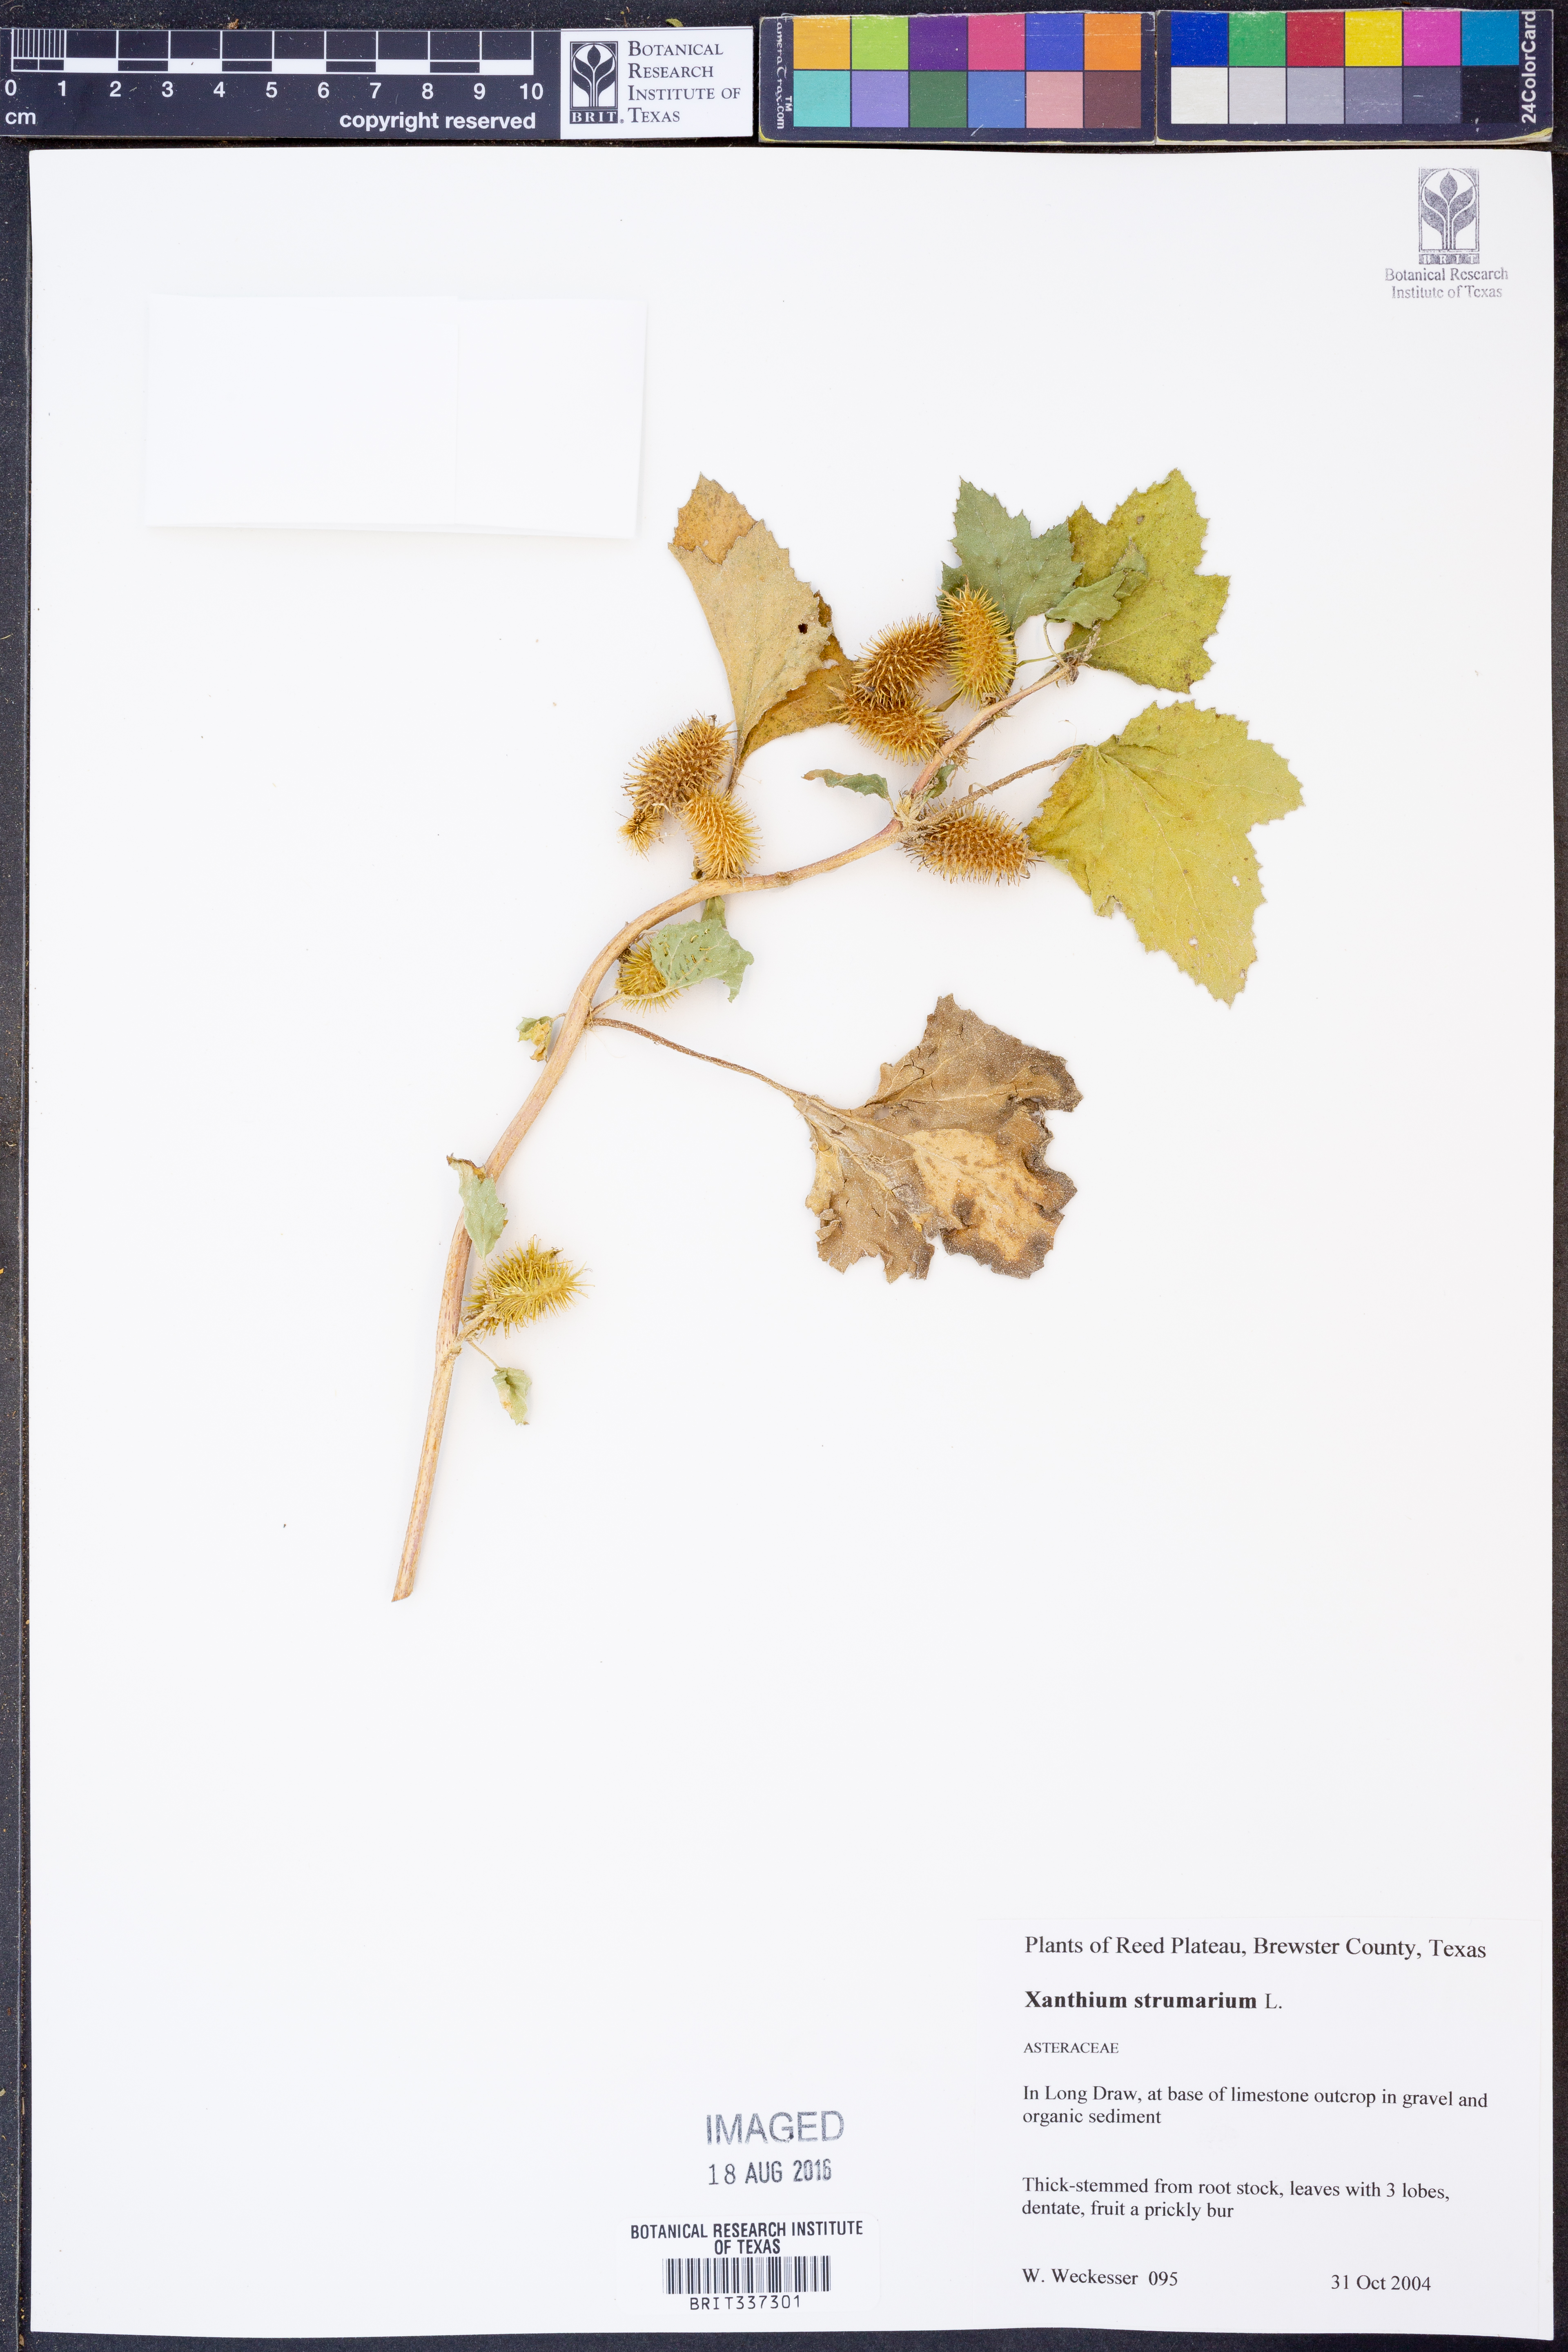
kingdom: Plantae
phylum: Tracheophyta
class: Magnoliopsida
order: Asterales
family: Asteraceae
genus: Xanthium
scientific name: Xanthium strumarium
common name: Rough cocklebur
